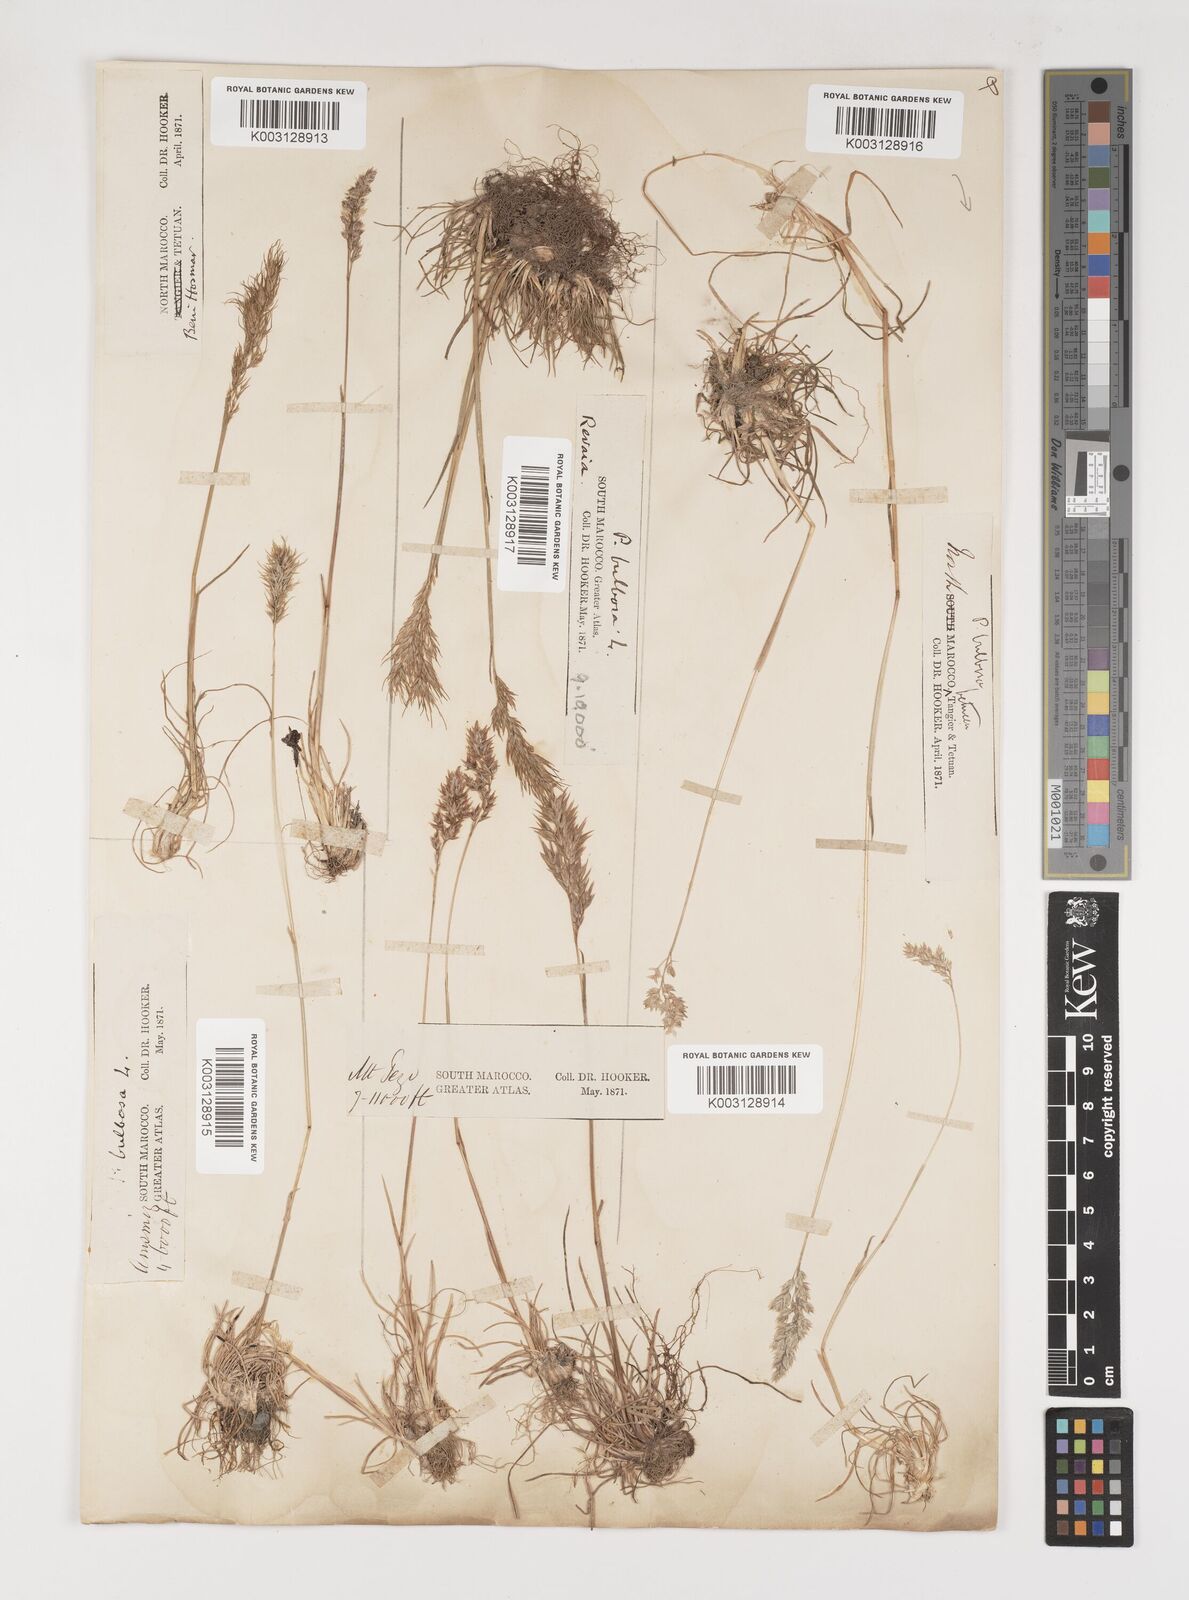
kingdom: Plantae
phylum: Tracheophyta
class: Liliopsida
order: Poales
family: Poaceae
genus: Poa
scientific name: Poa bulbosa
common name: Bulbous bluegrass
